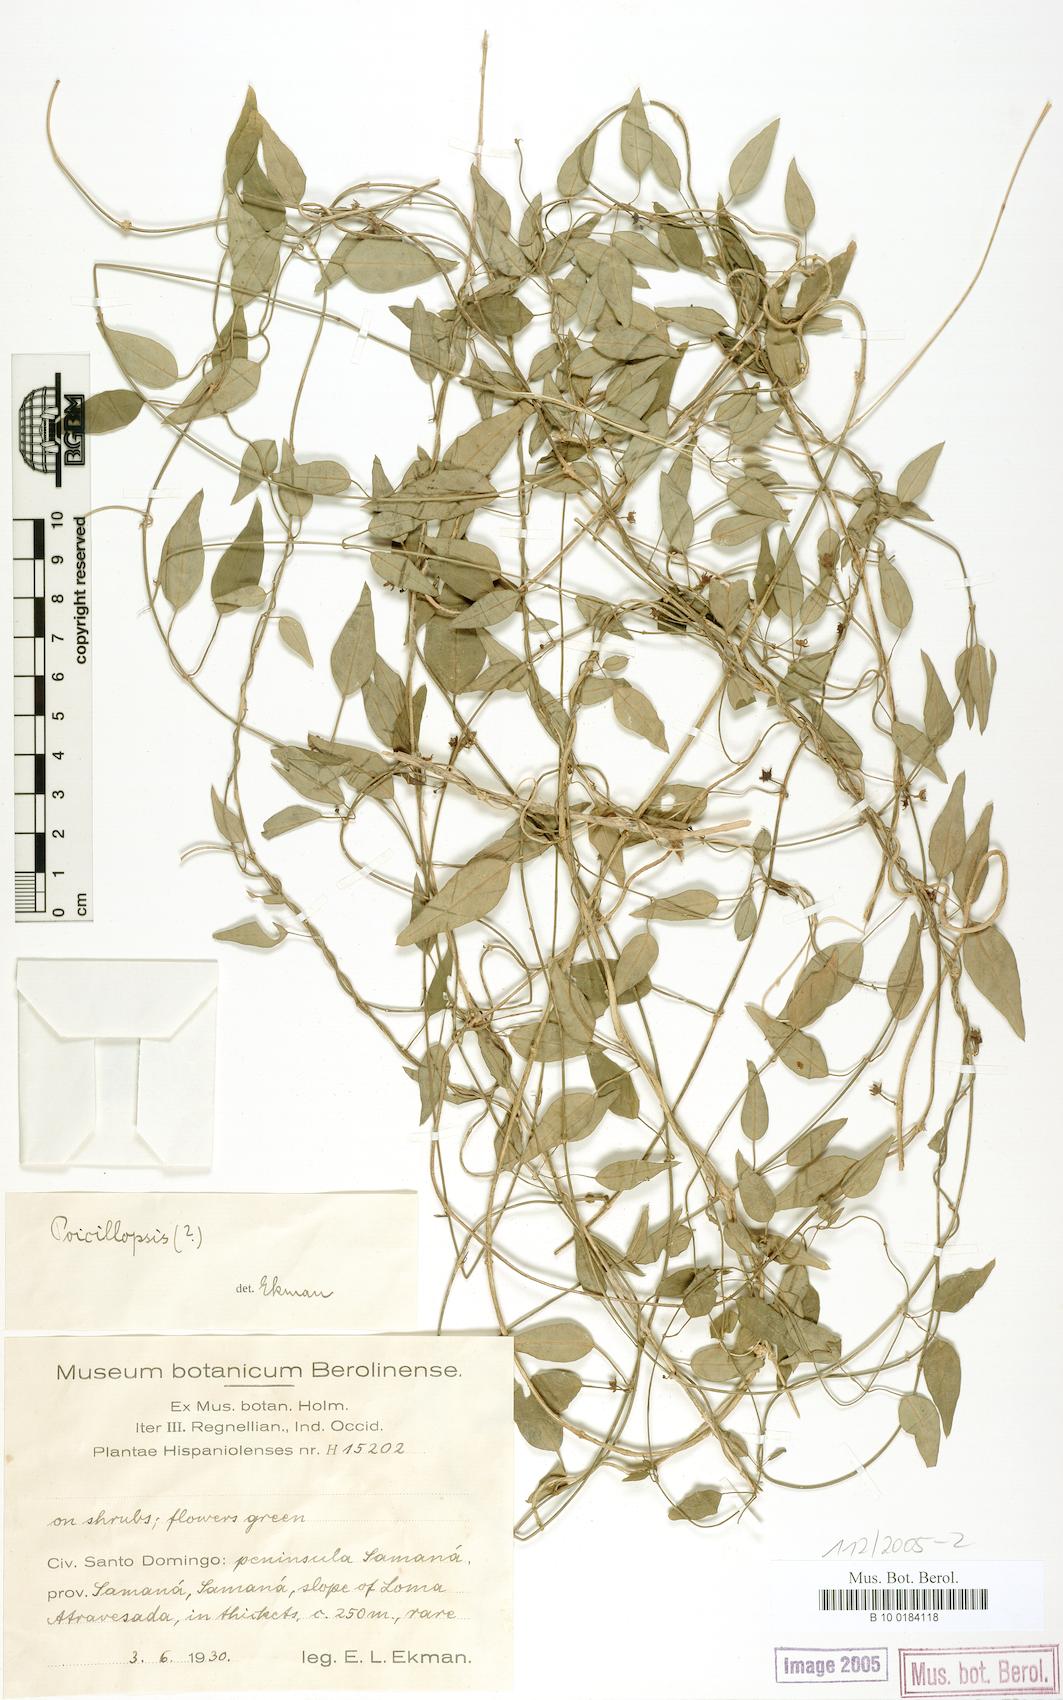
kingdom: Plantae
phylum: Tracheophyta
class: Magnoliopsida
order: Gentianales
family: Apocynaceae
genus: Poicillopsis
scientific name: Poicillopsis
